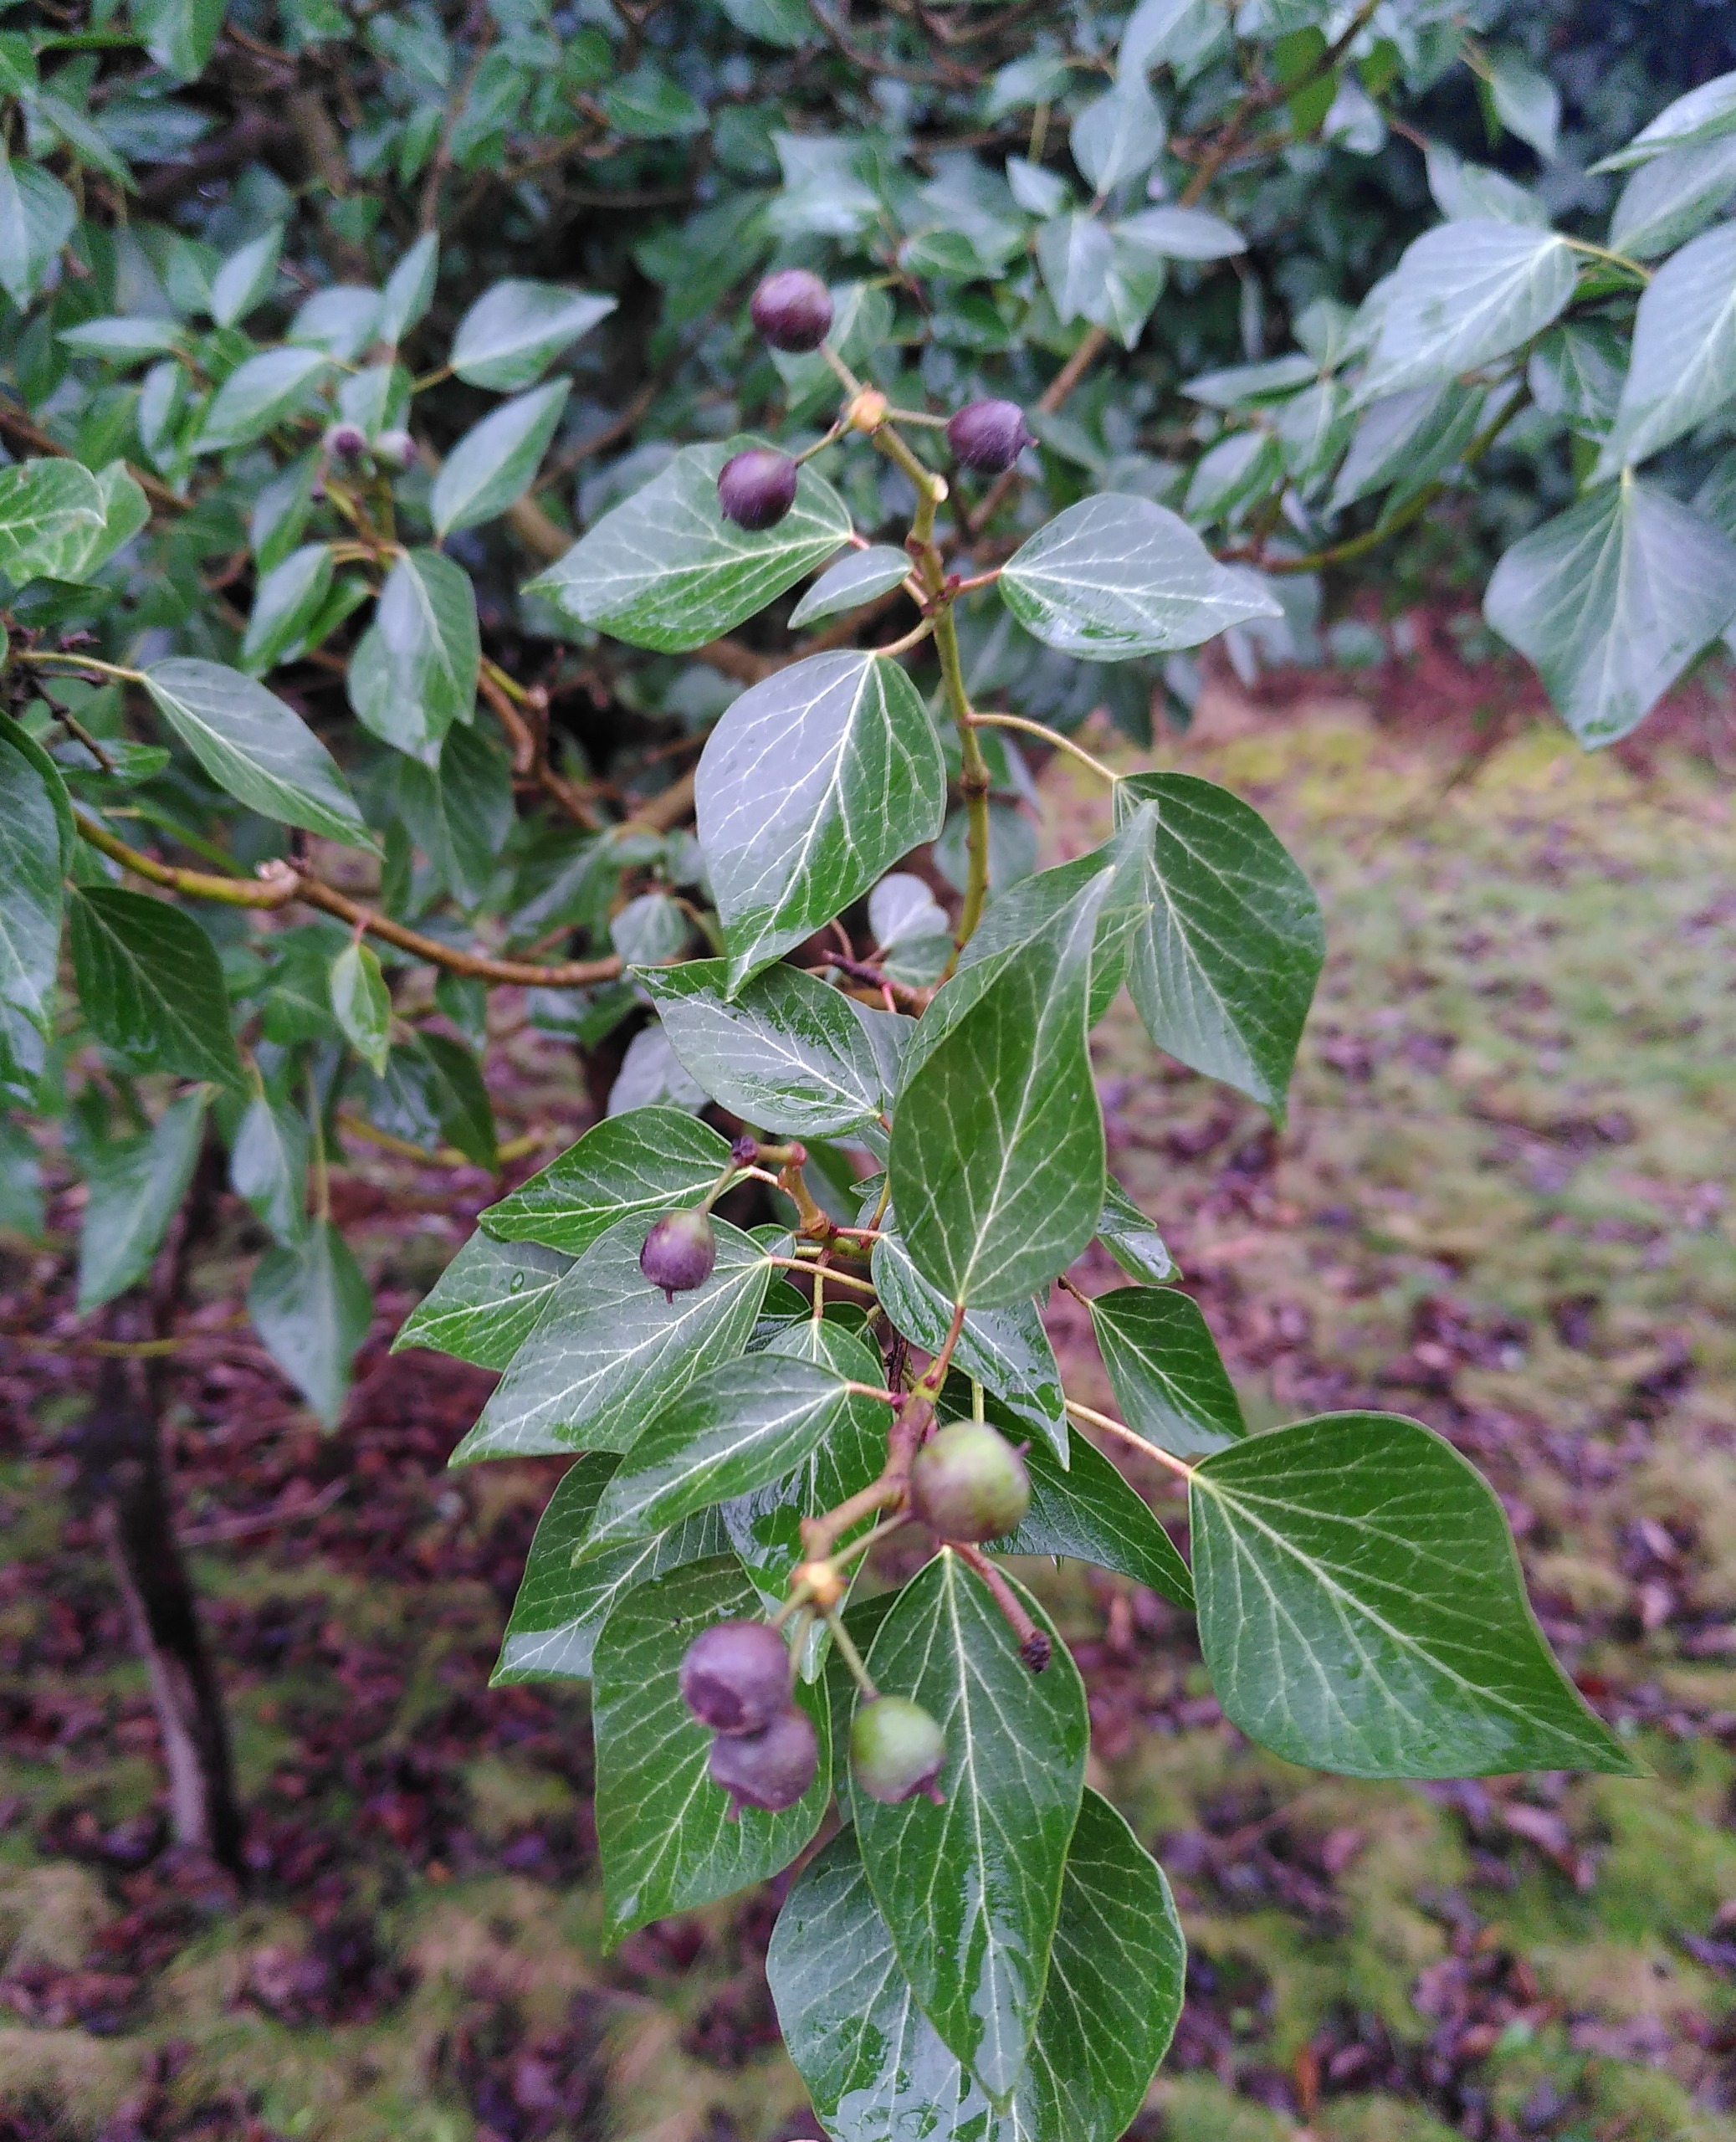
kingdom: Plantae
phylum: Tracheophyta
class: Magnoliopsida
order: Apiales
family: Araliaceae
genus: Hedera
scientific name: Hedera helix
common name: Vedbend
